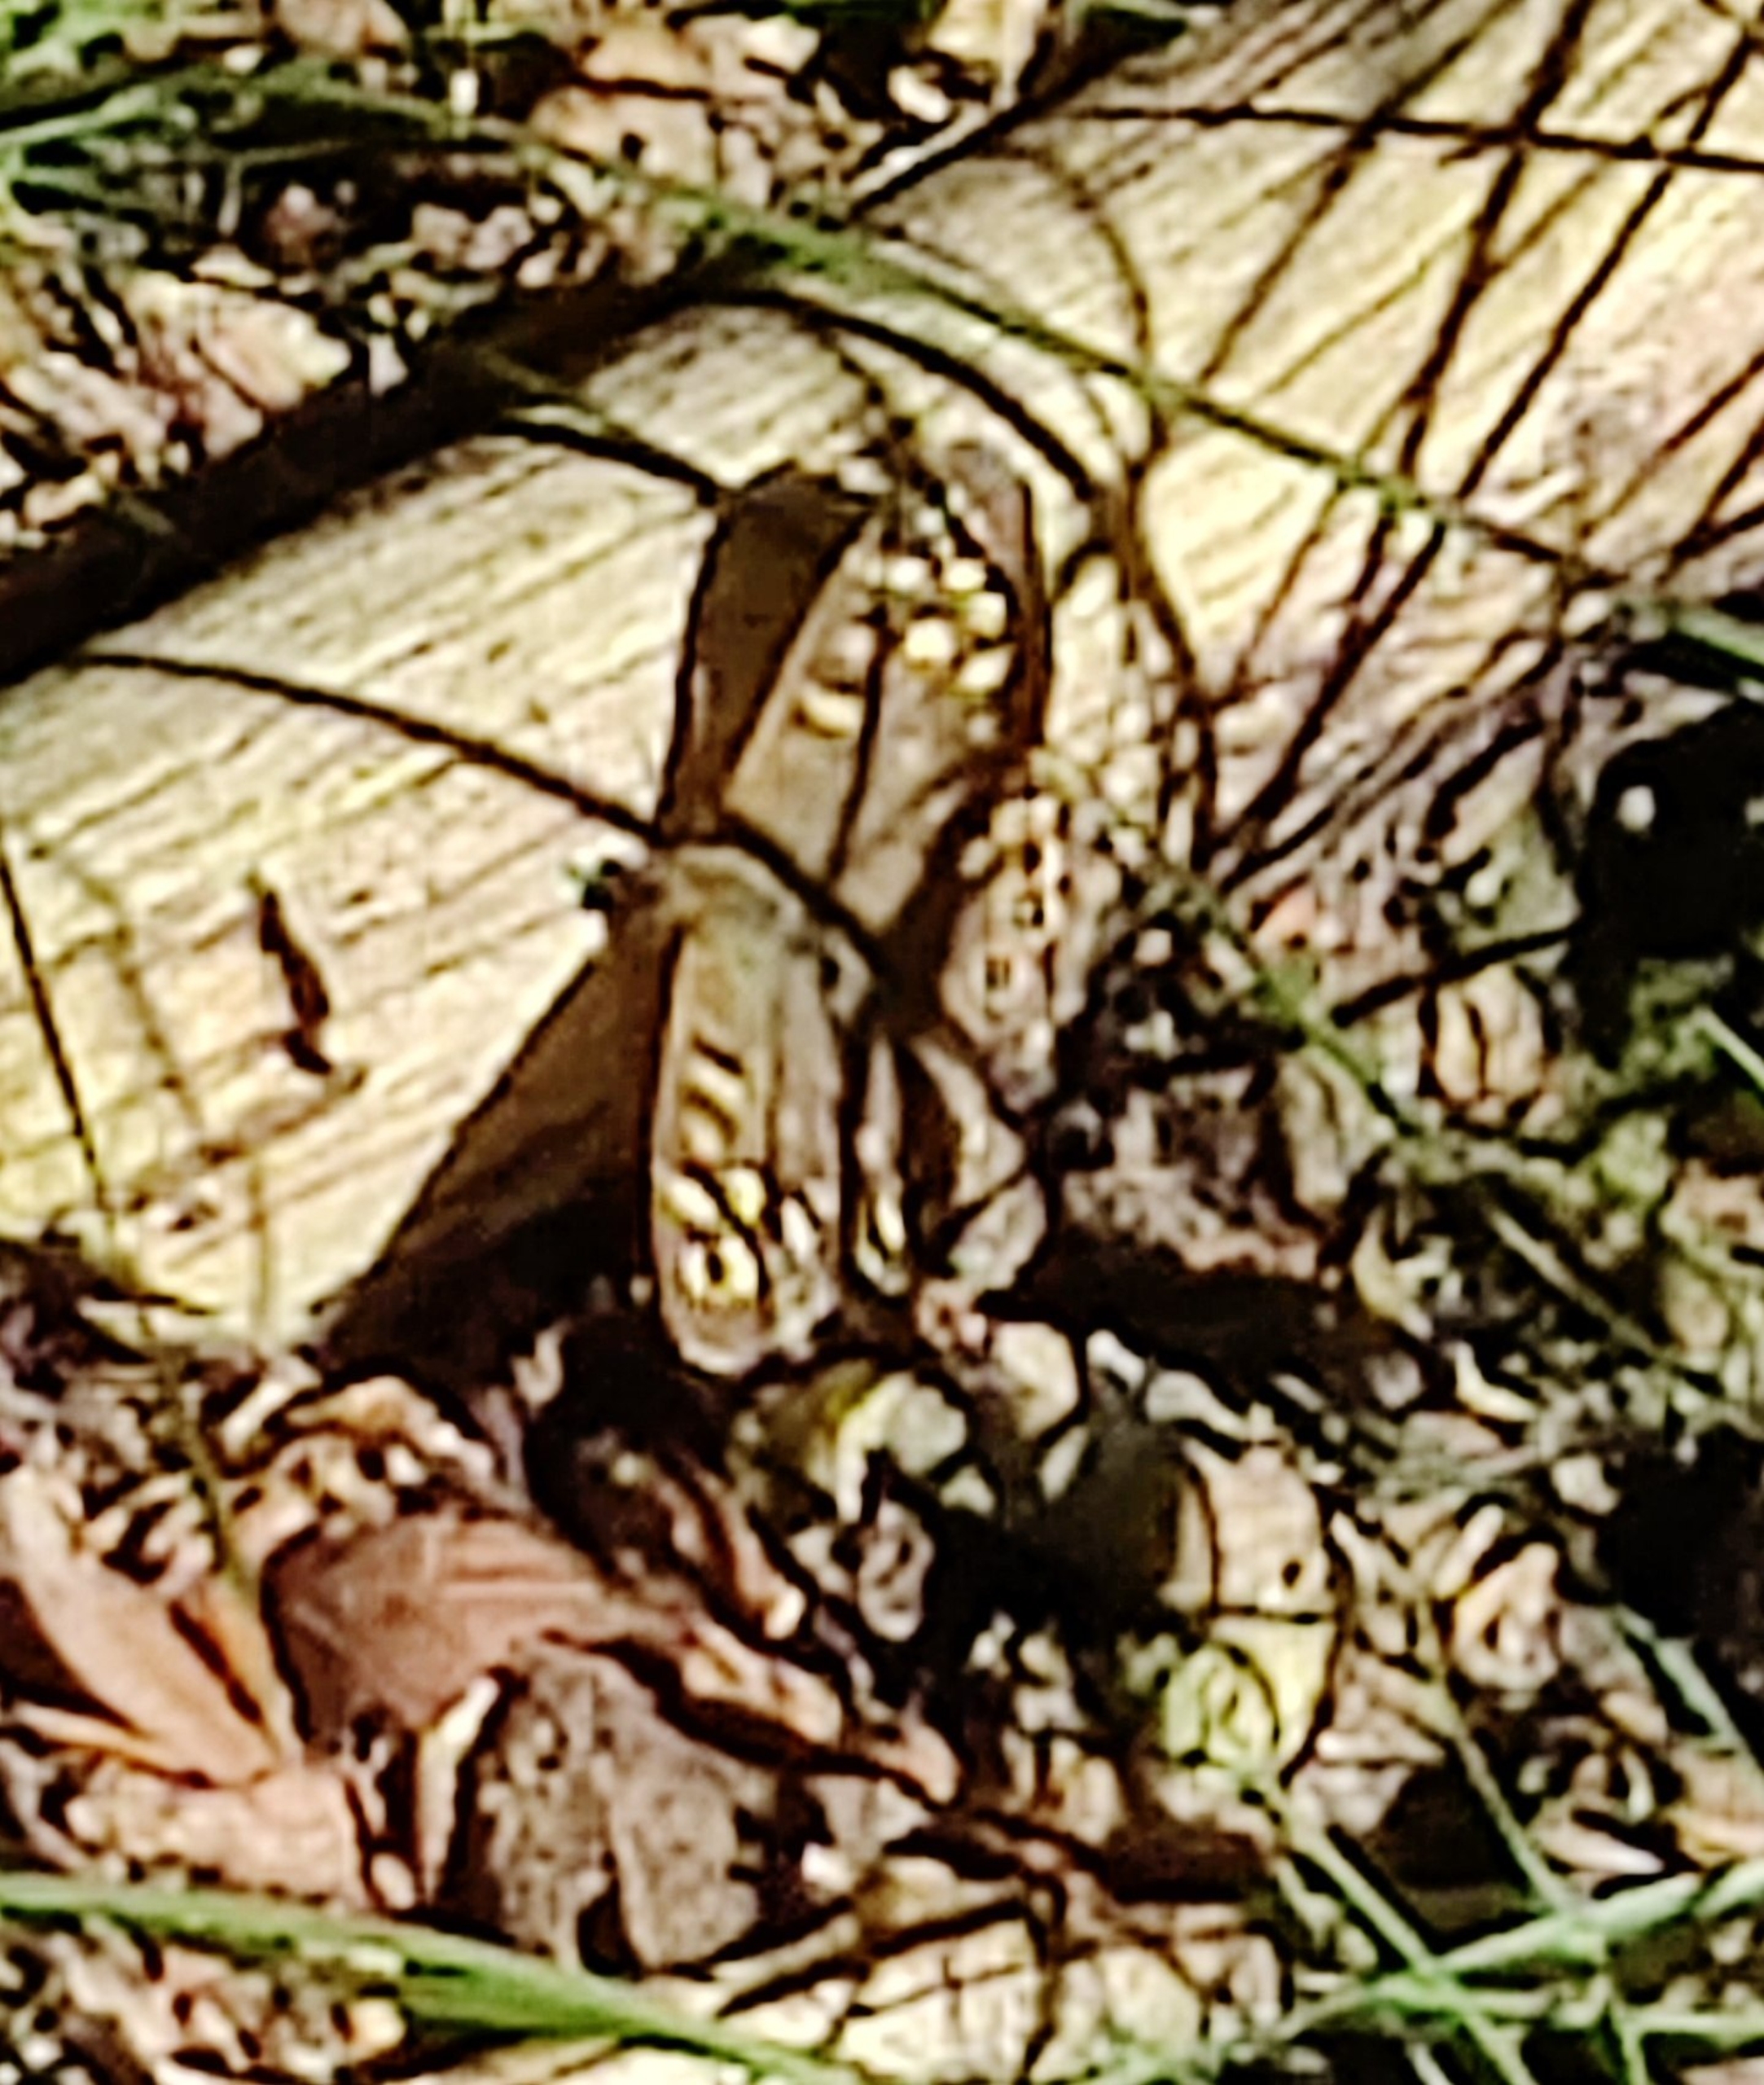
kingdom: Animalia
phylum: Arthropoda
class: Insecta
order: Lepidoptera
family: Nymphalidae
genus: Pararge
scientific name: Pararge aegeria
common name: Skovrandøje
